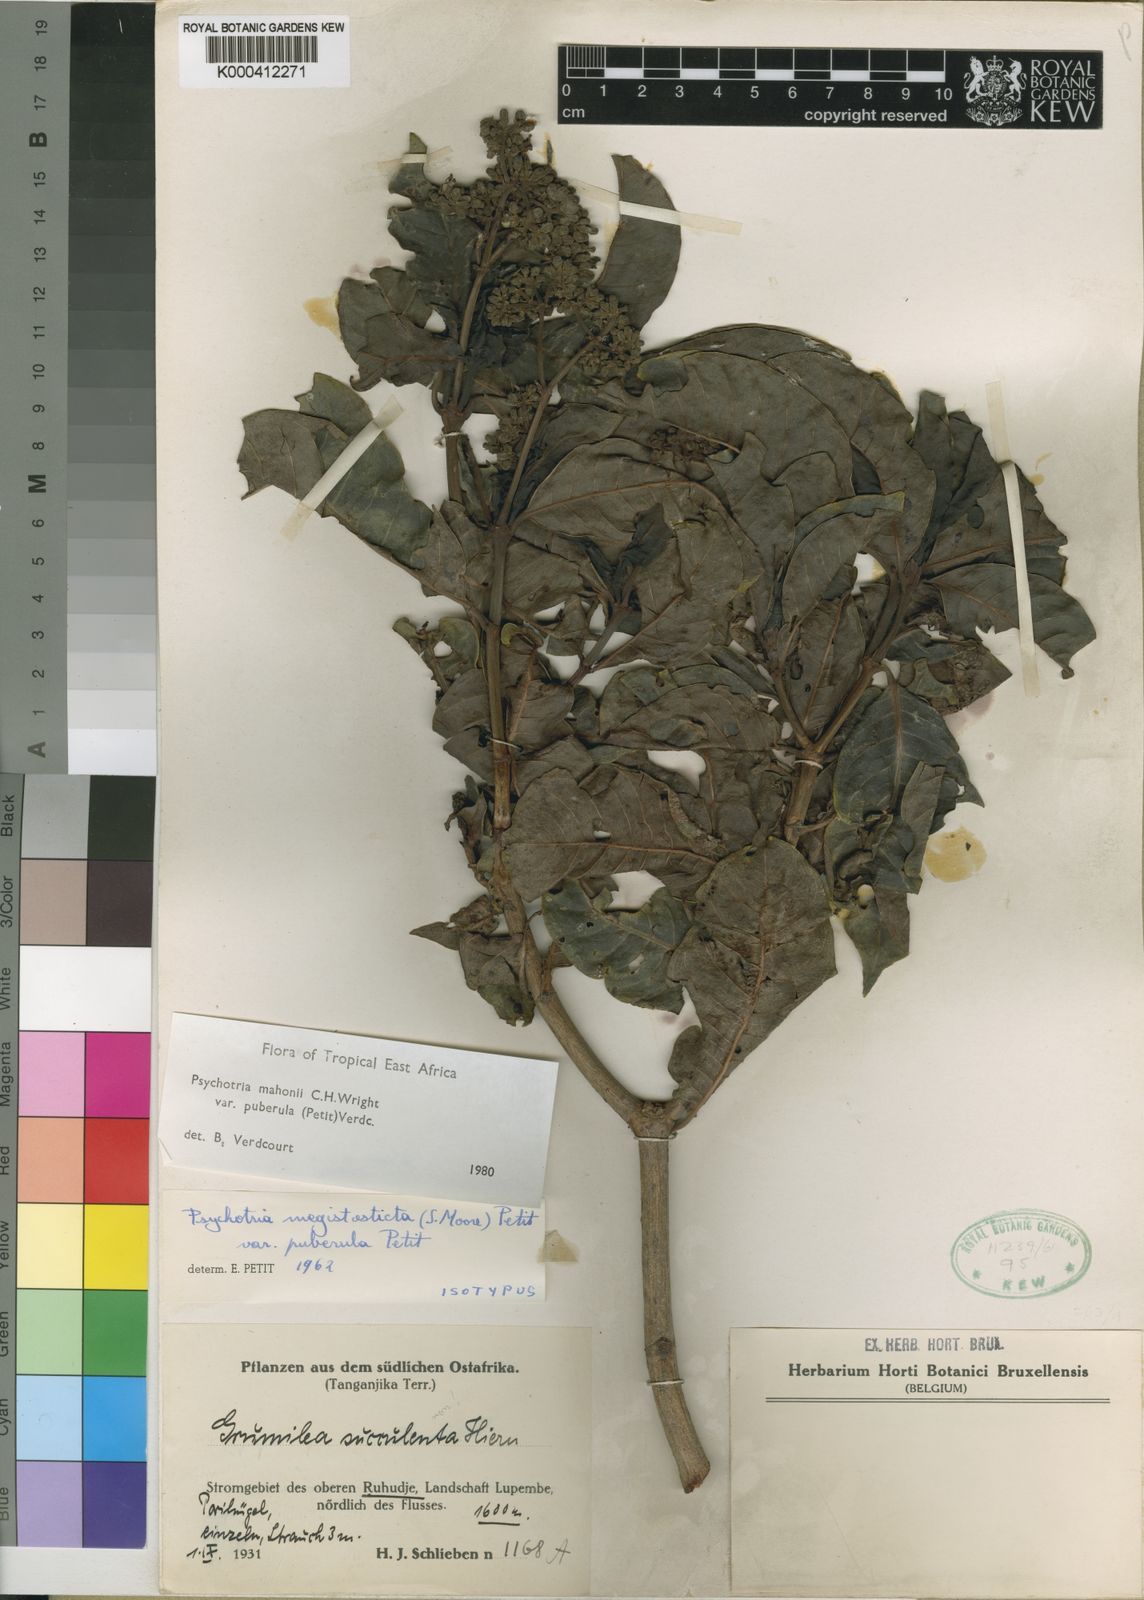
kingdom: Plantae
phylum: Tracheophyta
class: Magnoliopsida
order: Gentianales
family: Rubiaceae
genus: Psychotria
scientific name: Psychotria mahonii
